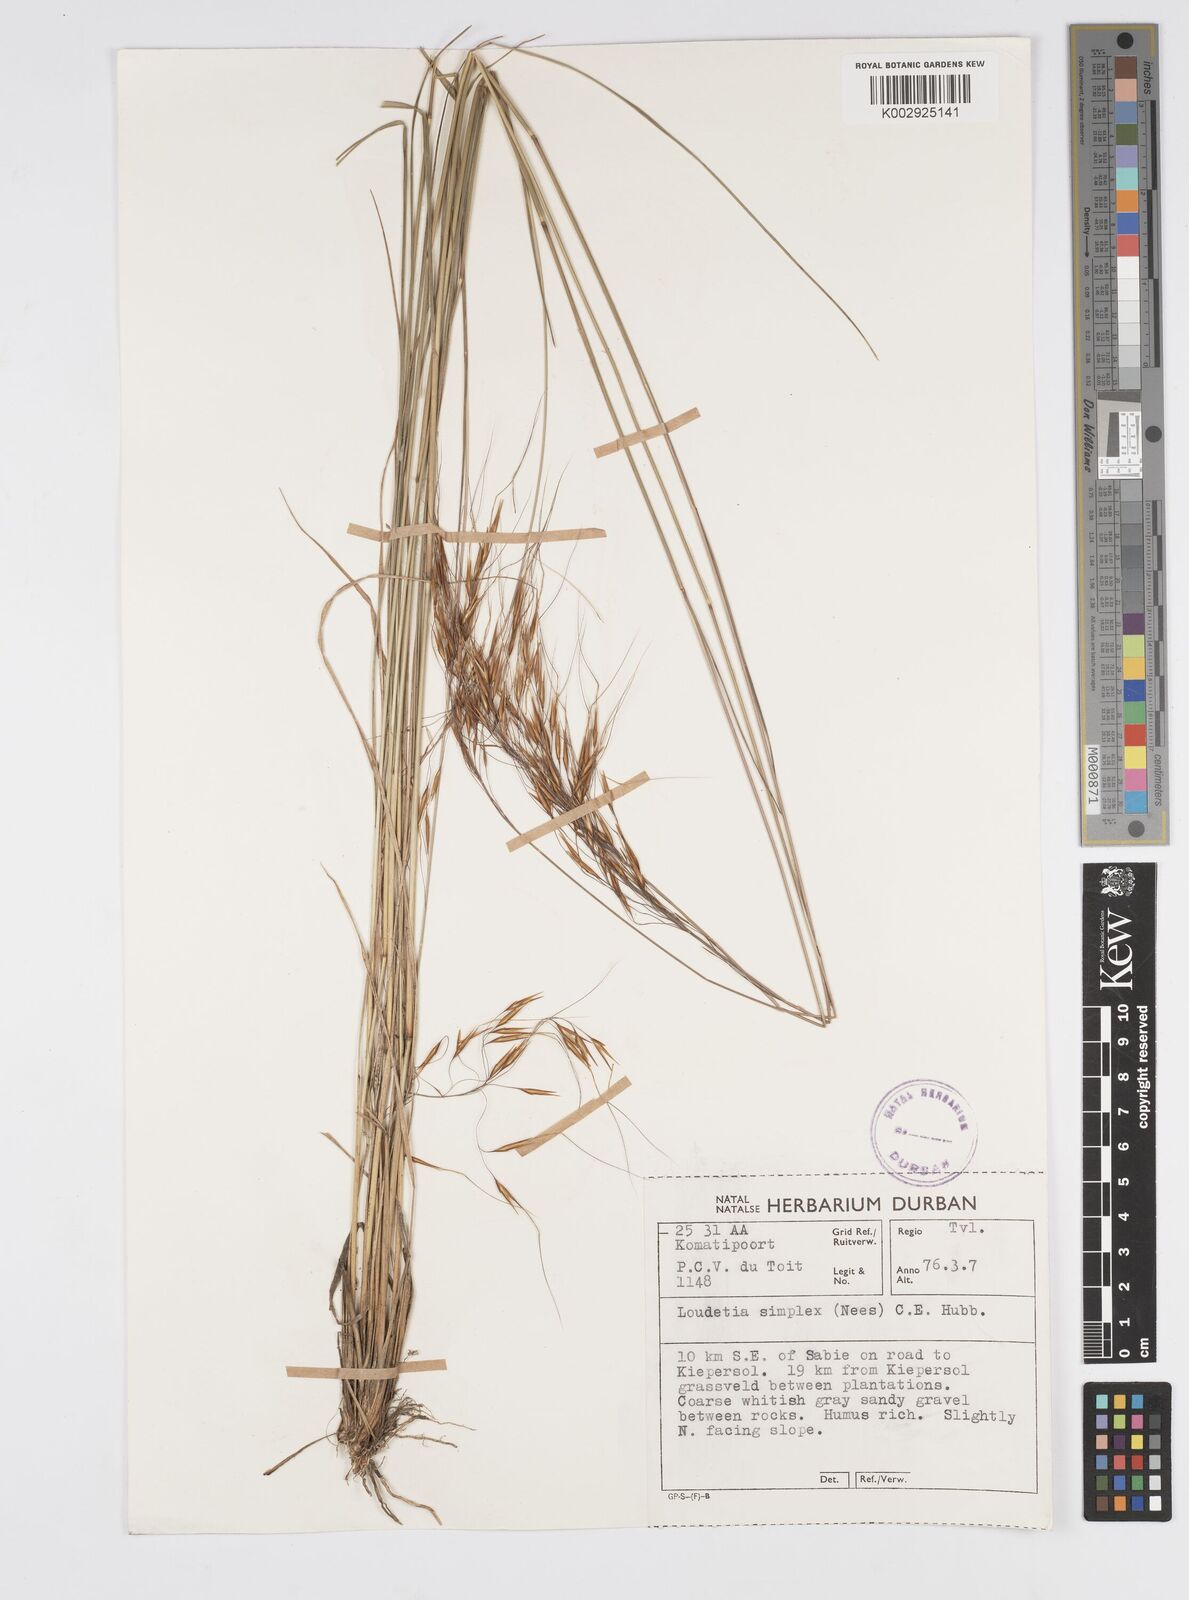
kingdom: Plantae
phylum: Tracheophyta
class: Liliopsida
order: Poales
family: Poaceae
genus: Loudetia
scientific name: Loudetia simplex
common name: Common russet grass
